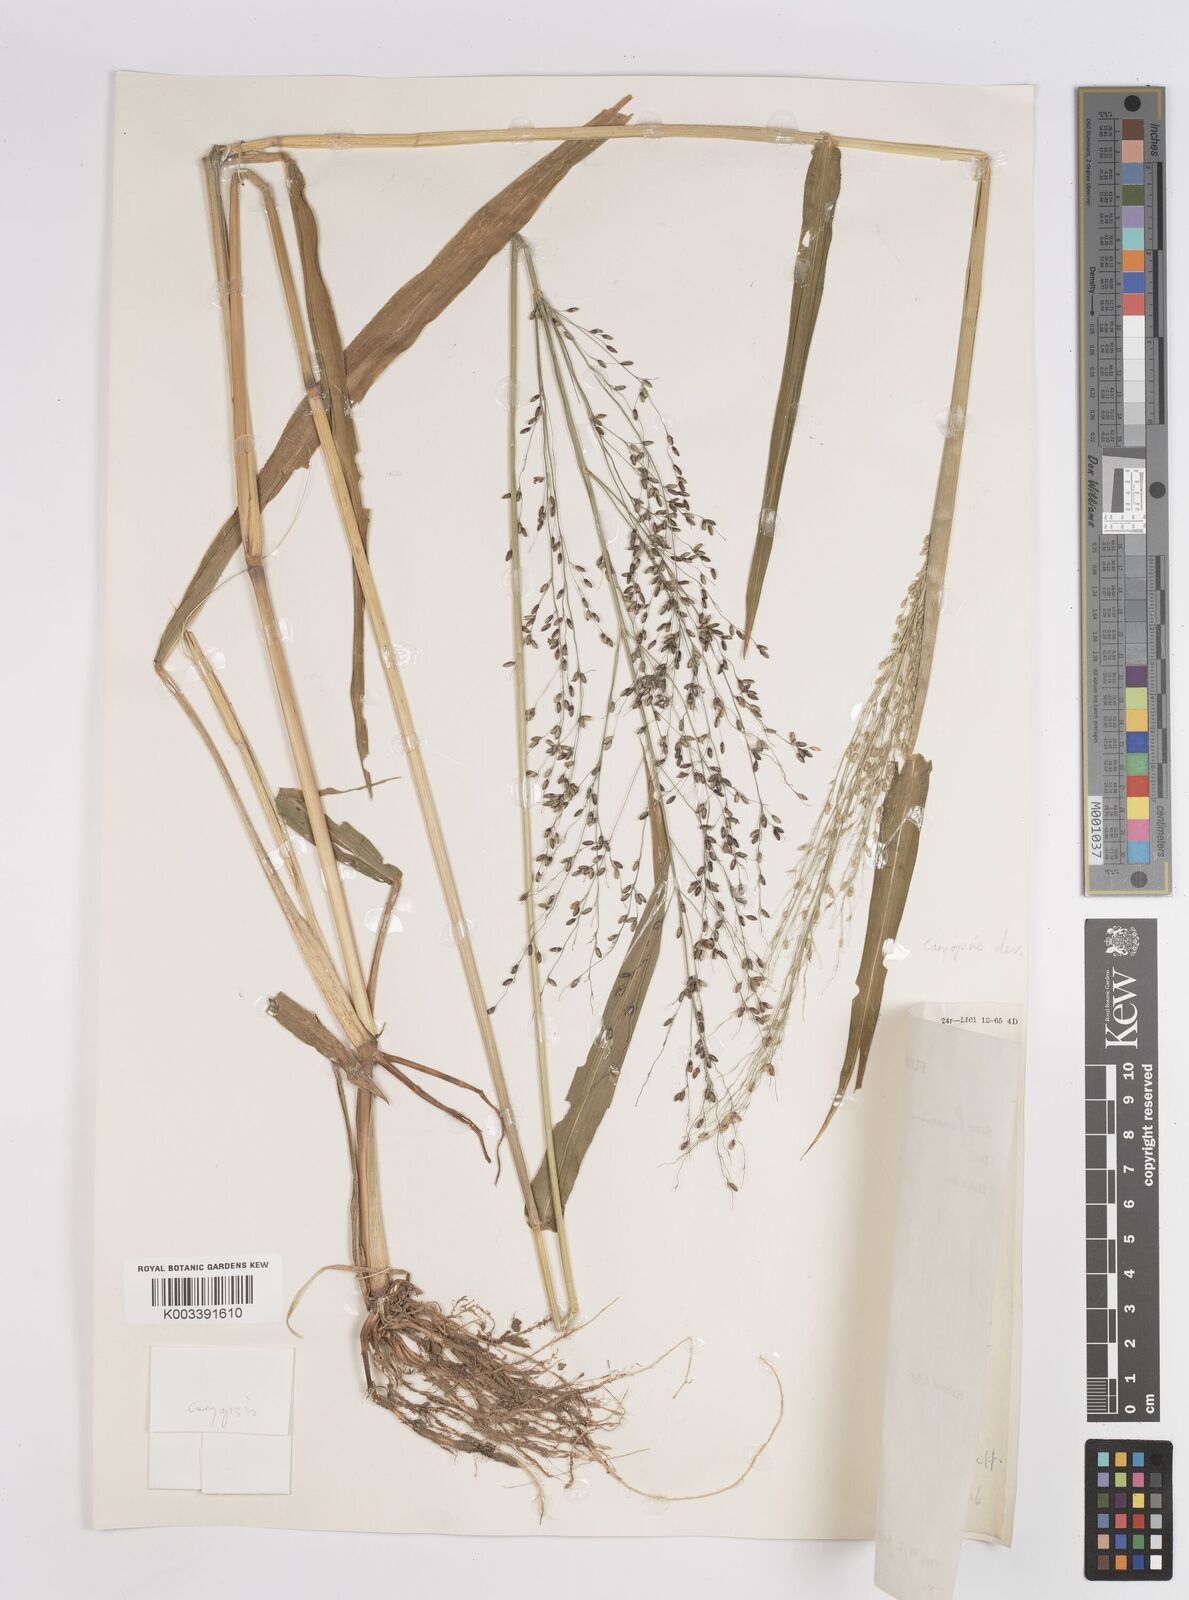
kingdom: Plantae
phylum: Tracheophyta
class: Liliopsida
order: Poales
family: Poaceae
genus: Megathyrsus
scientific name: Megathyrsus maximus
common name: Guineagrass
